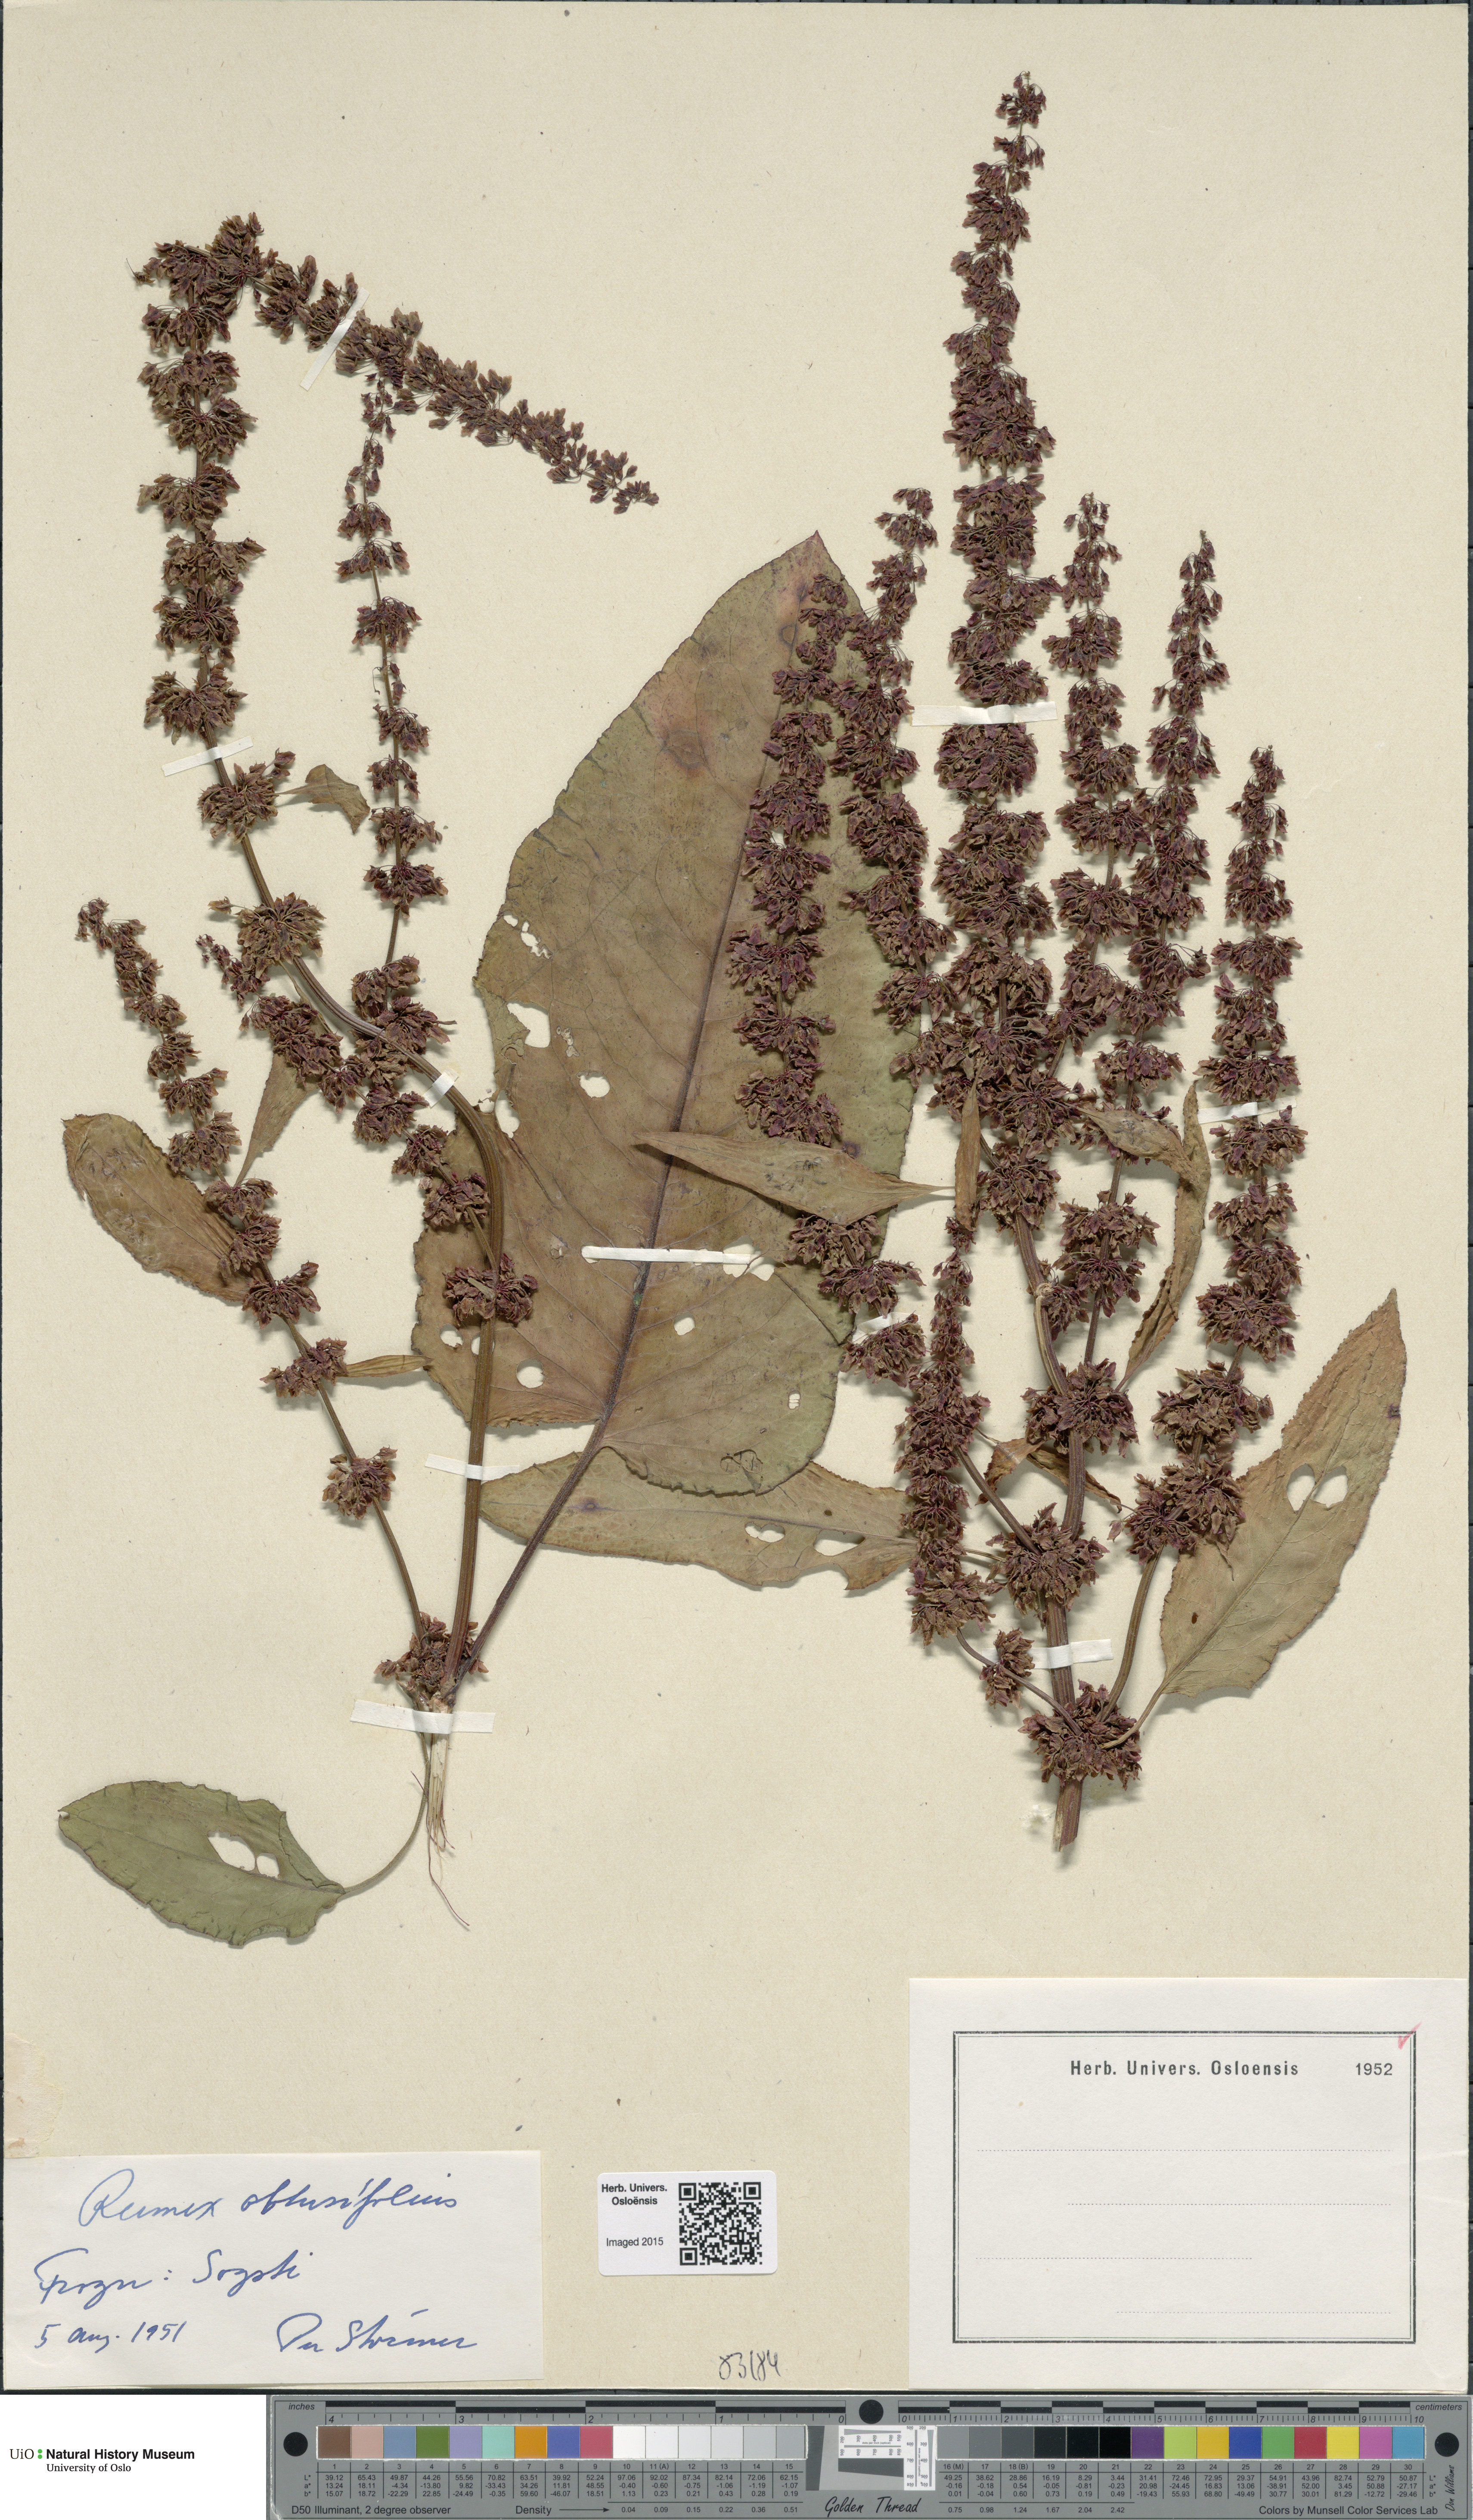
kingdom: Plantae
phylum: Tracheophyta
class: Magnoliopsida
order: Caryophyllales
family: Polygonaceae
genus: Rumex
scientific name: Rumex obtusifolius
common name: Bitter dock
